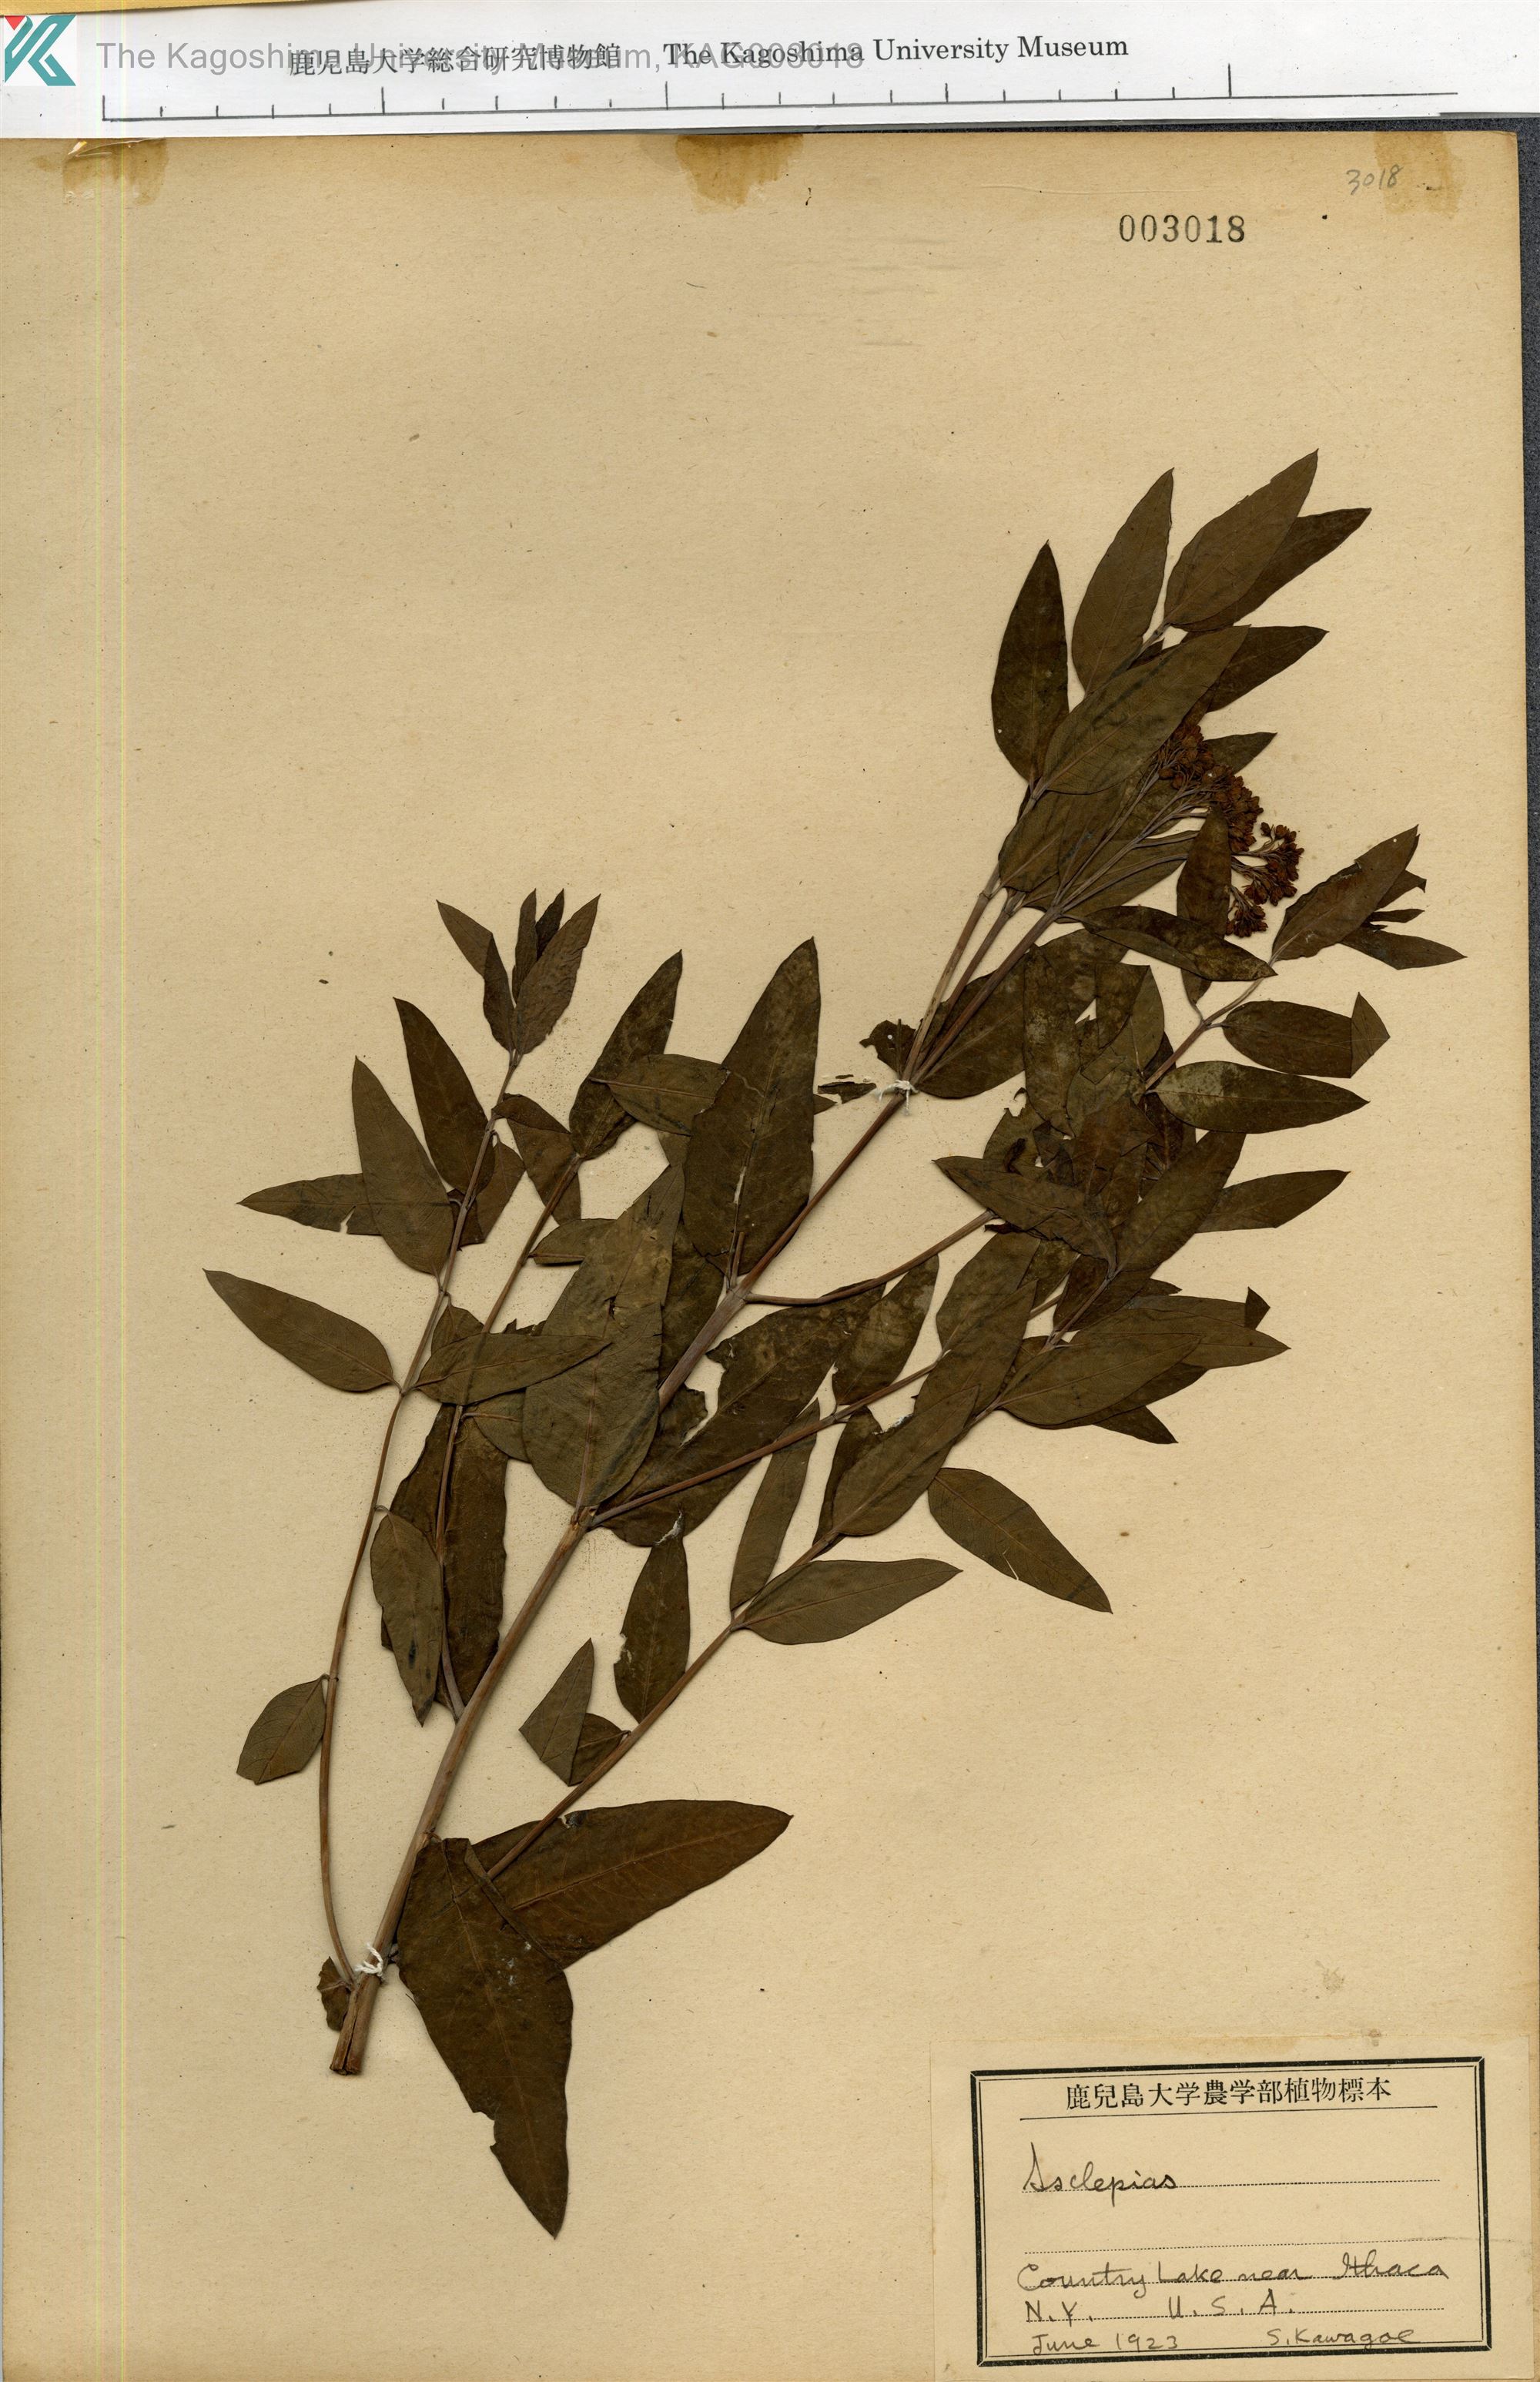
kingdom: Plantae
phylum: Tracheophyta
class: Magnoliopsida
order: Gentianales
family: Apocynaceae
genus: Asclepias
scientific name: Asclepias
